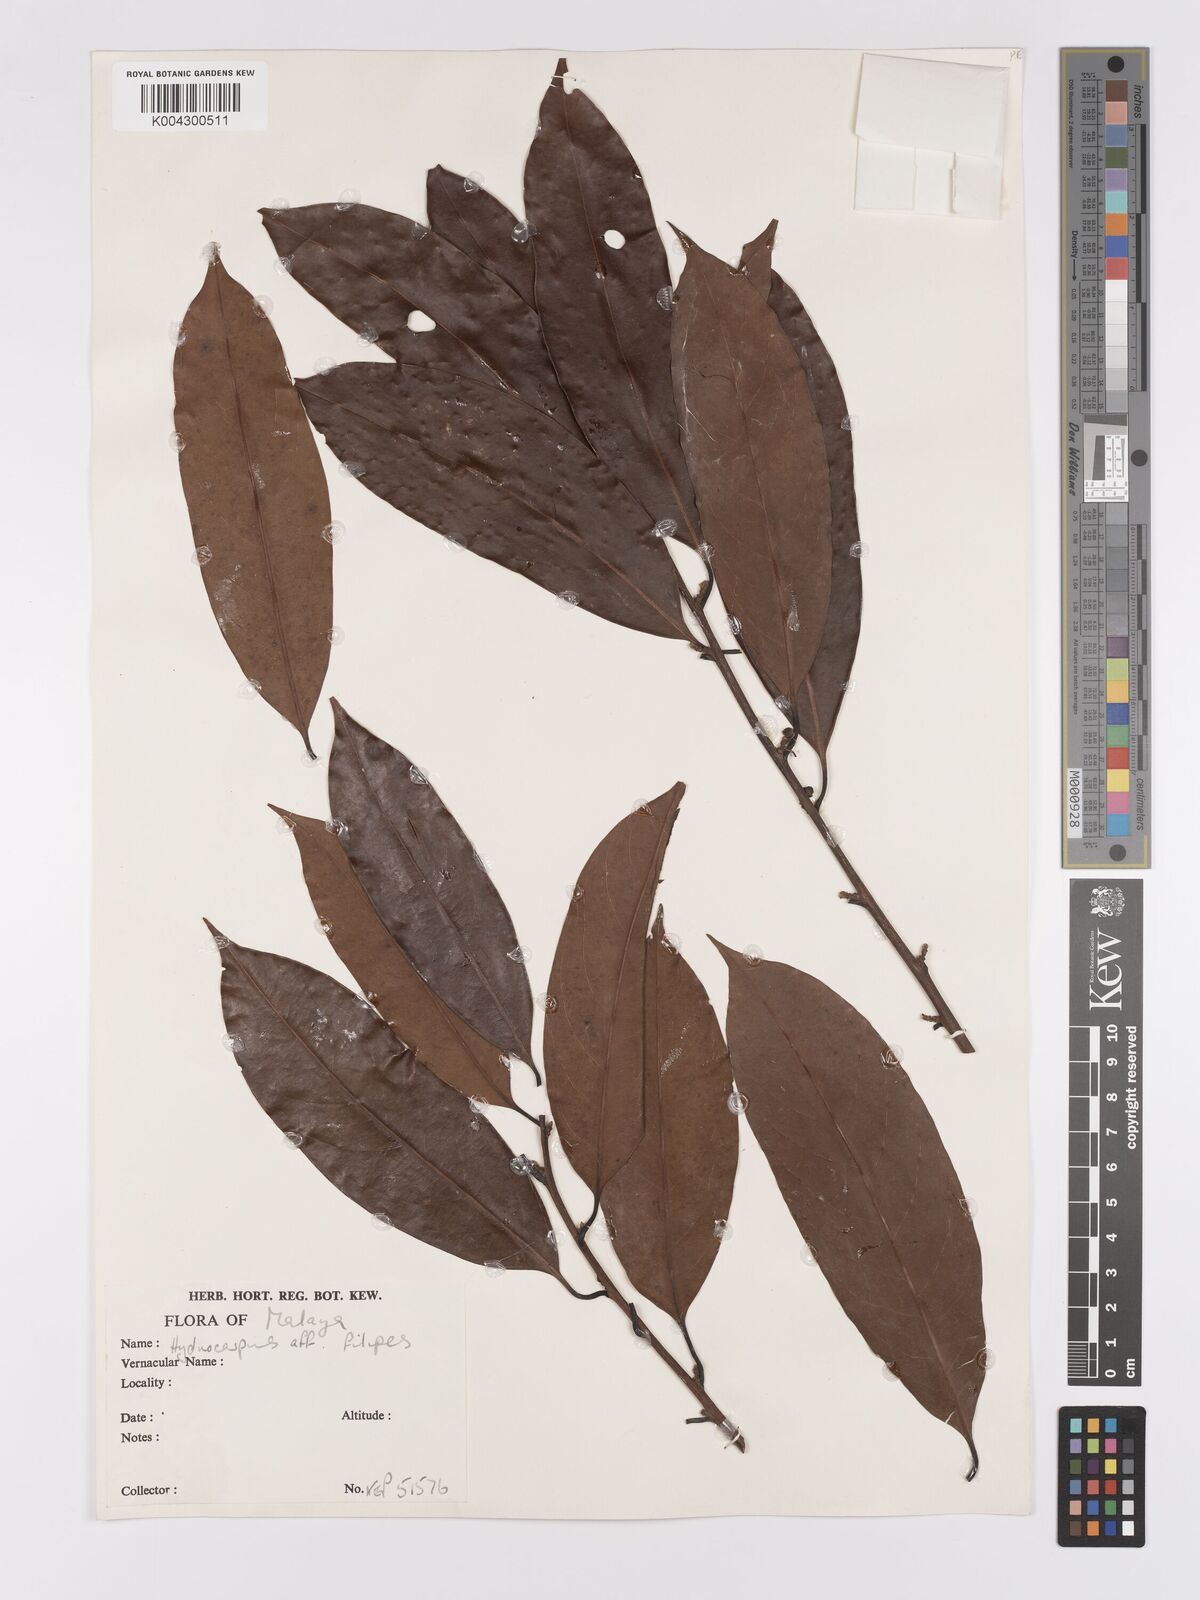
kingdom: Plantae
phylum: Tracheophyta
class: Magnoliopsida
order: Malpighiales
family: Achariaceae
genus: Hydnocarpus
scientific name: Hydnocarpus filipes
